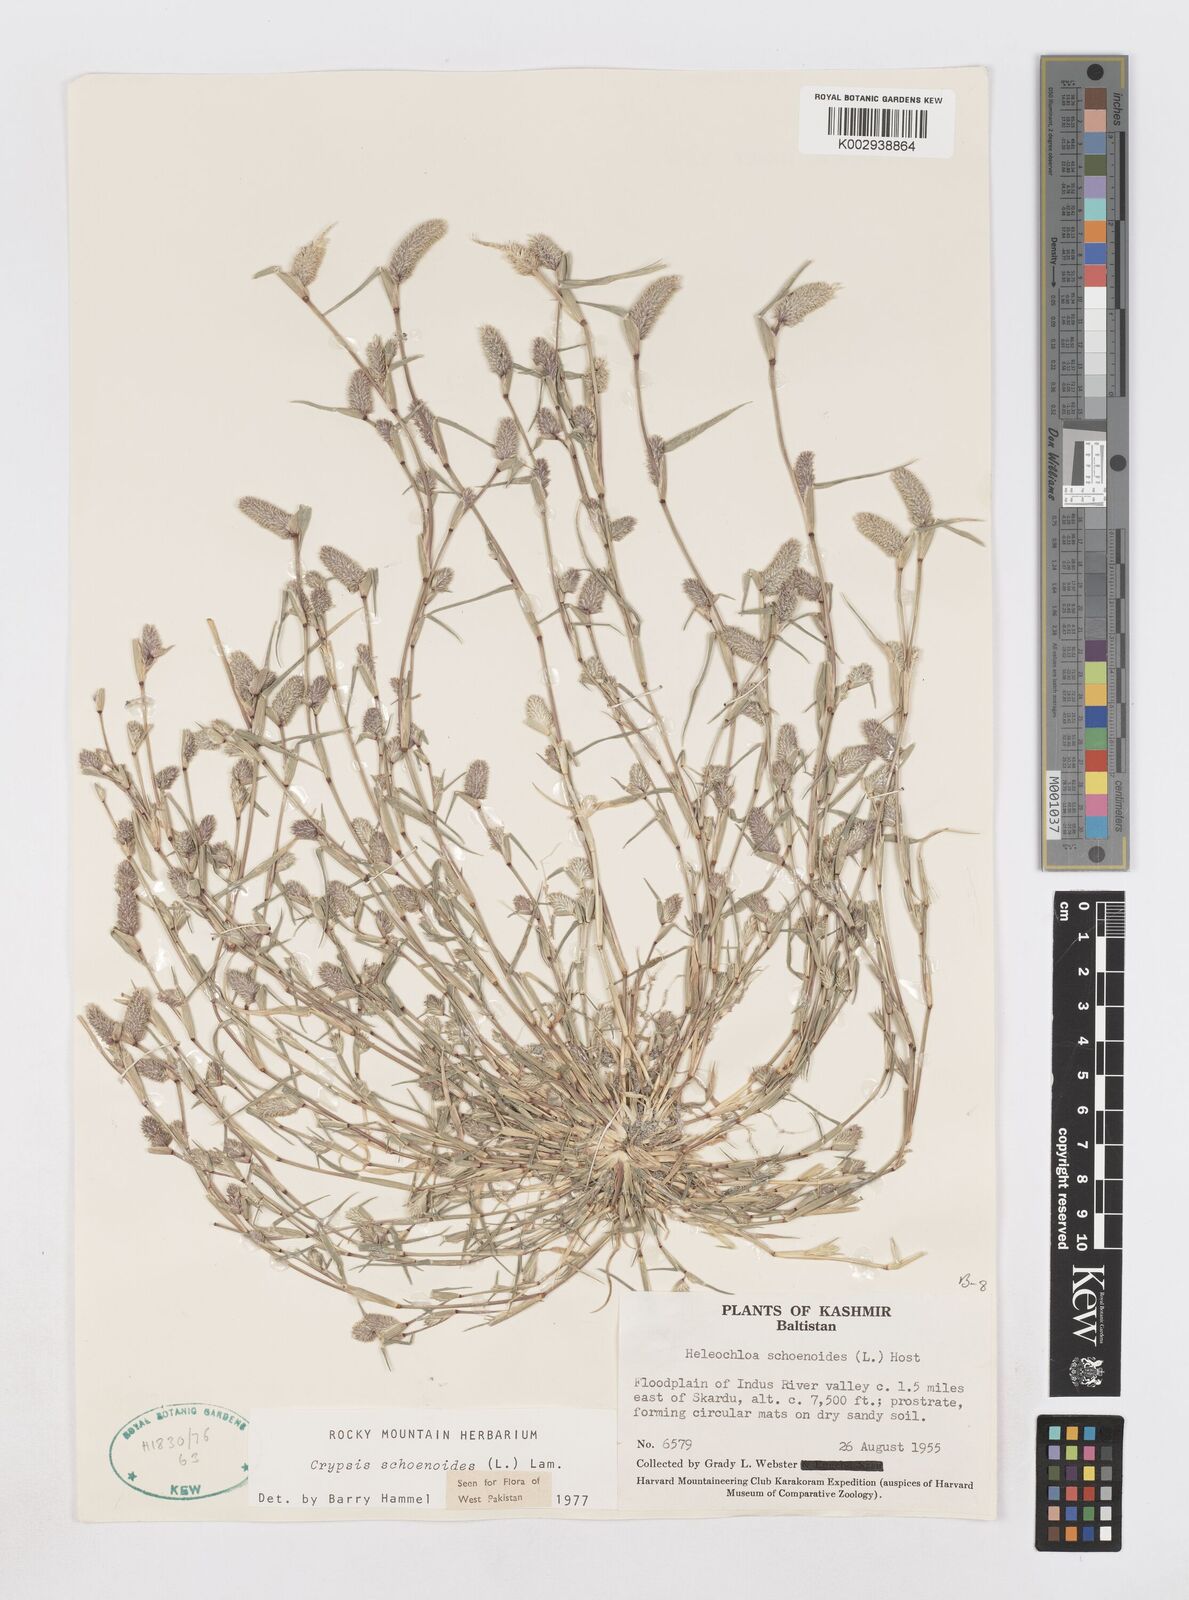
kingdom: Plantae
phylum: Tracheophyta
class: Liliopsida
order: Poales
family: Poaceae
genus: Sporobolus
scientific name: Sporobolus schoenoides
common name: Rush-like timothy
